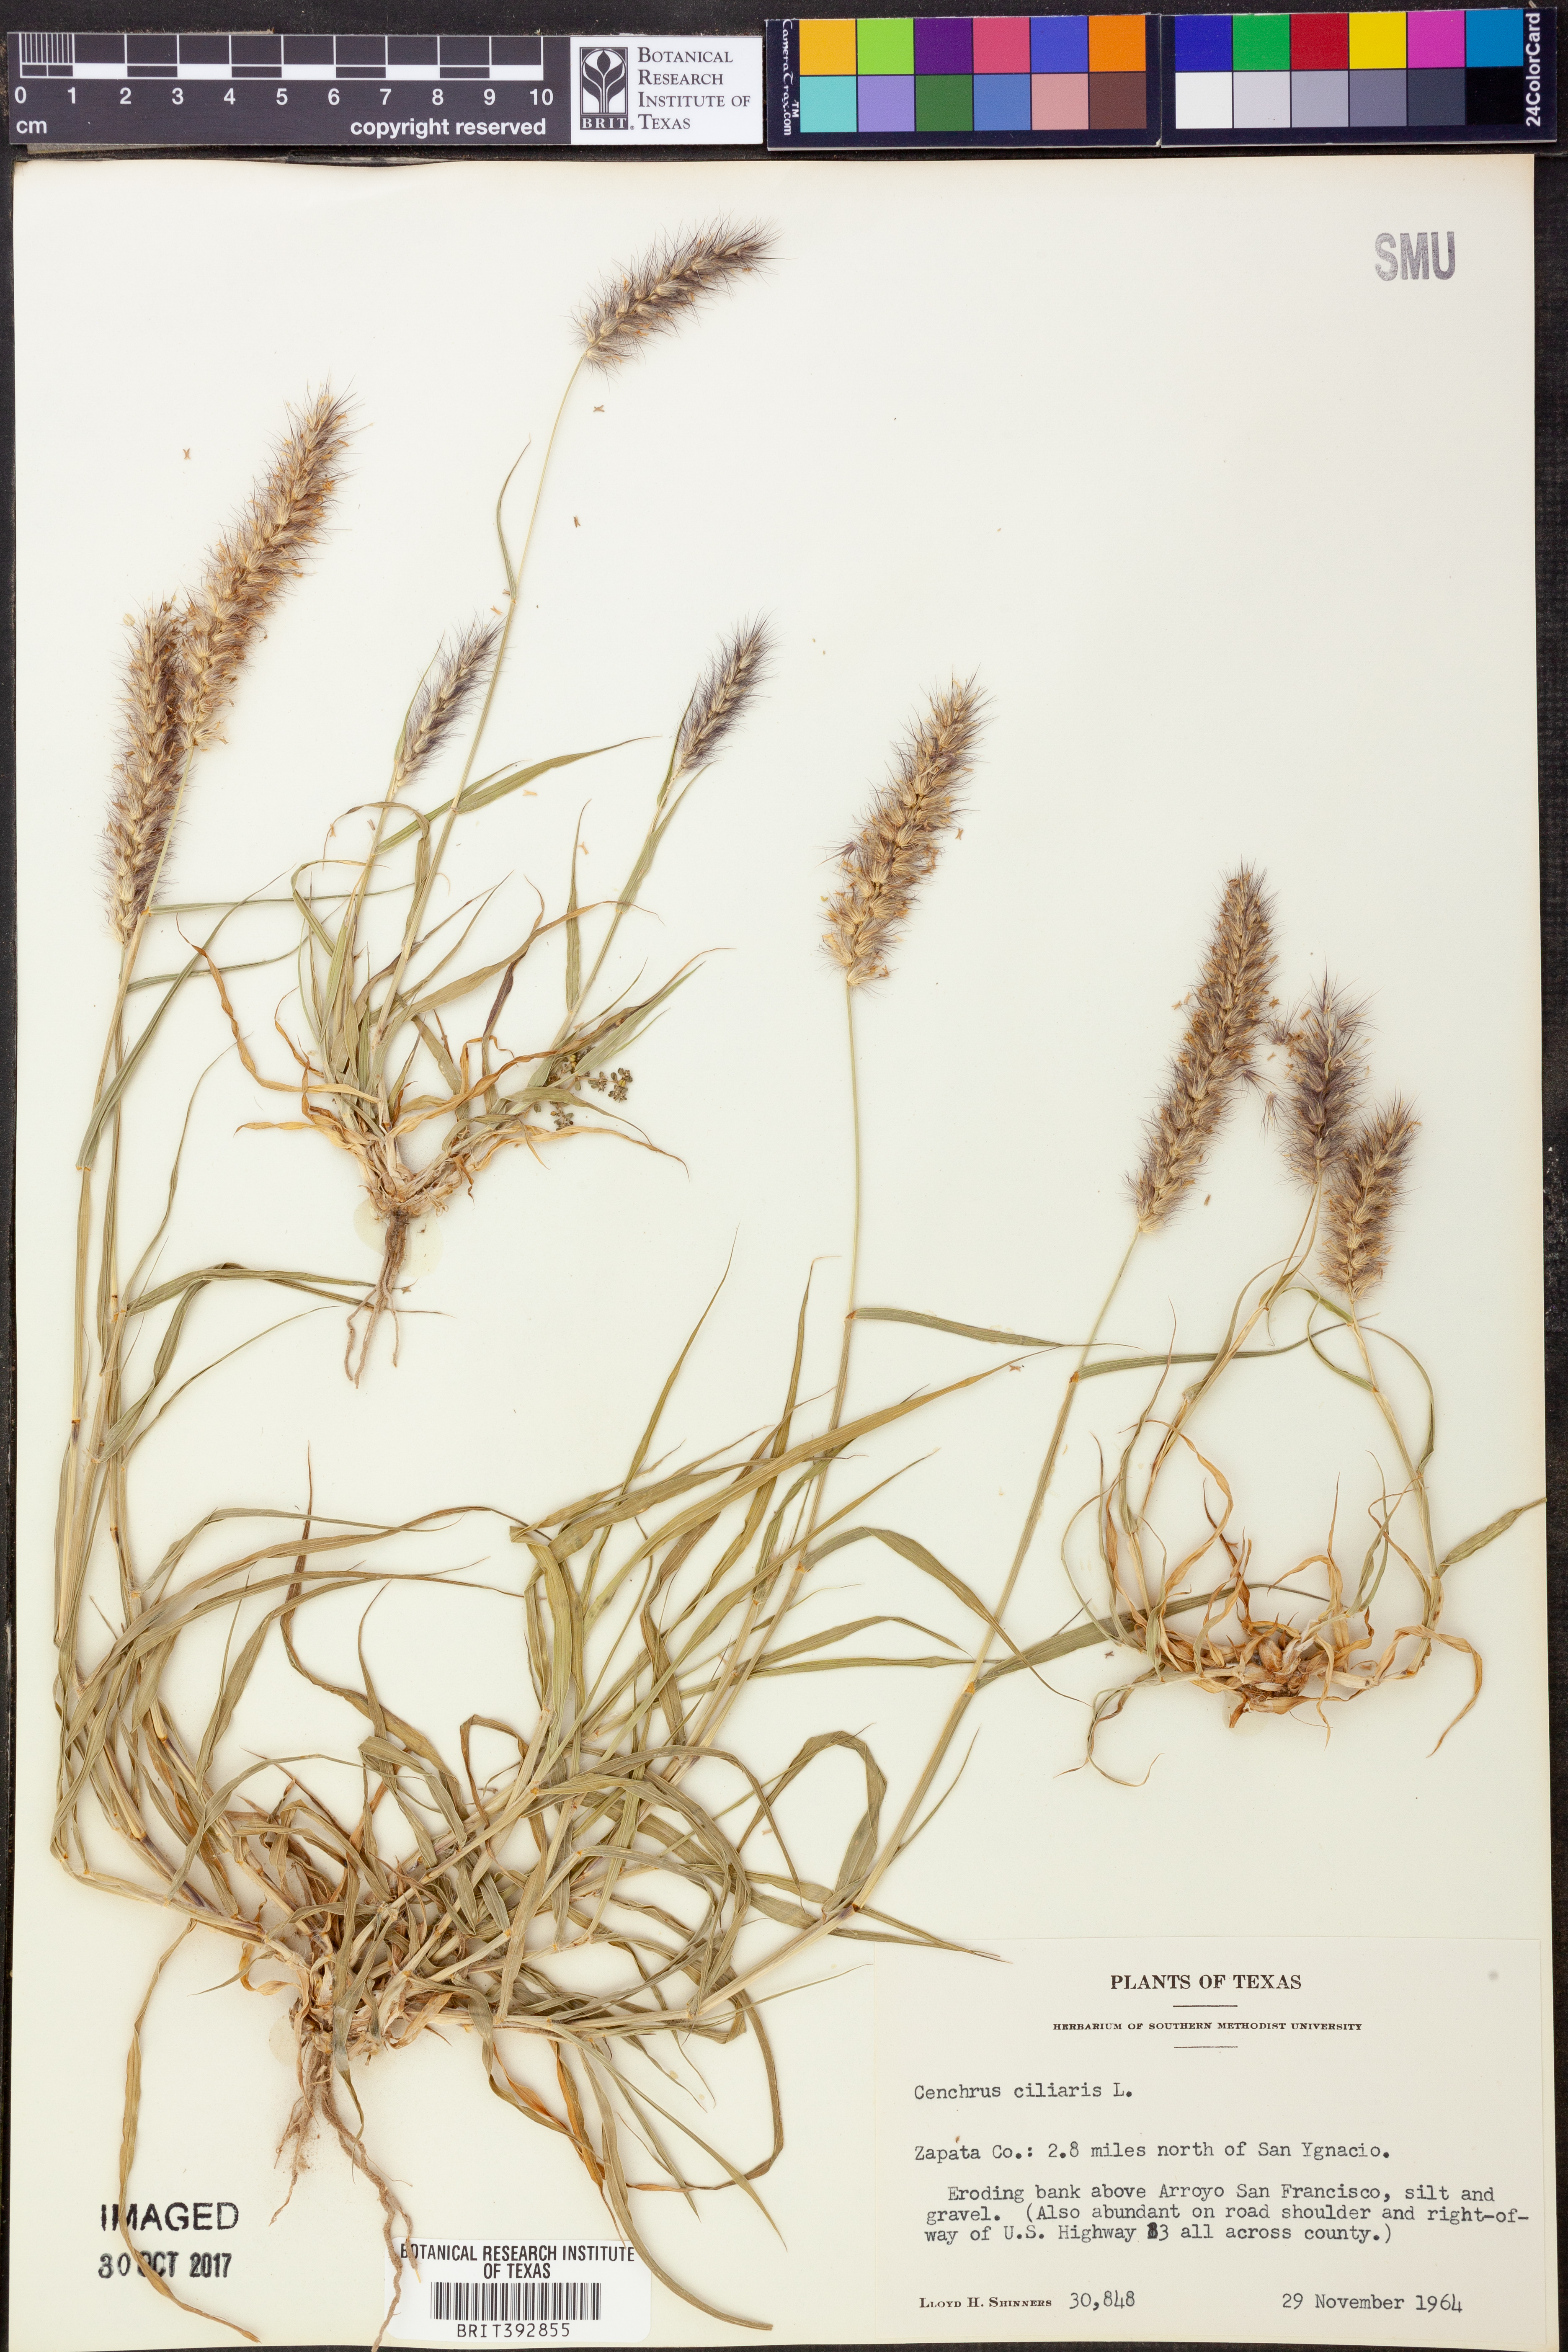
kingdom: Plantae
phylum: Tracheophyta
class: Liliopsida
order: Poales
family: Poaceae
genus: Cenchrus
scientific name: Cenchrus ciliaris
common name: Buffelgrass
